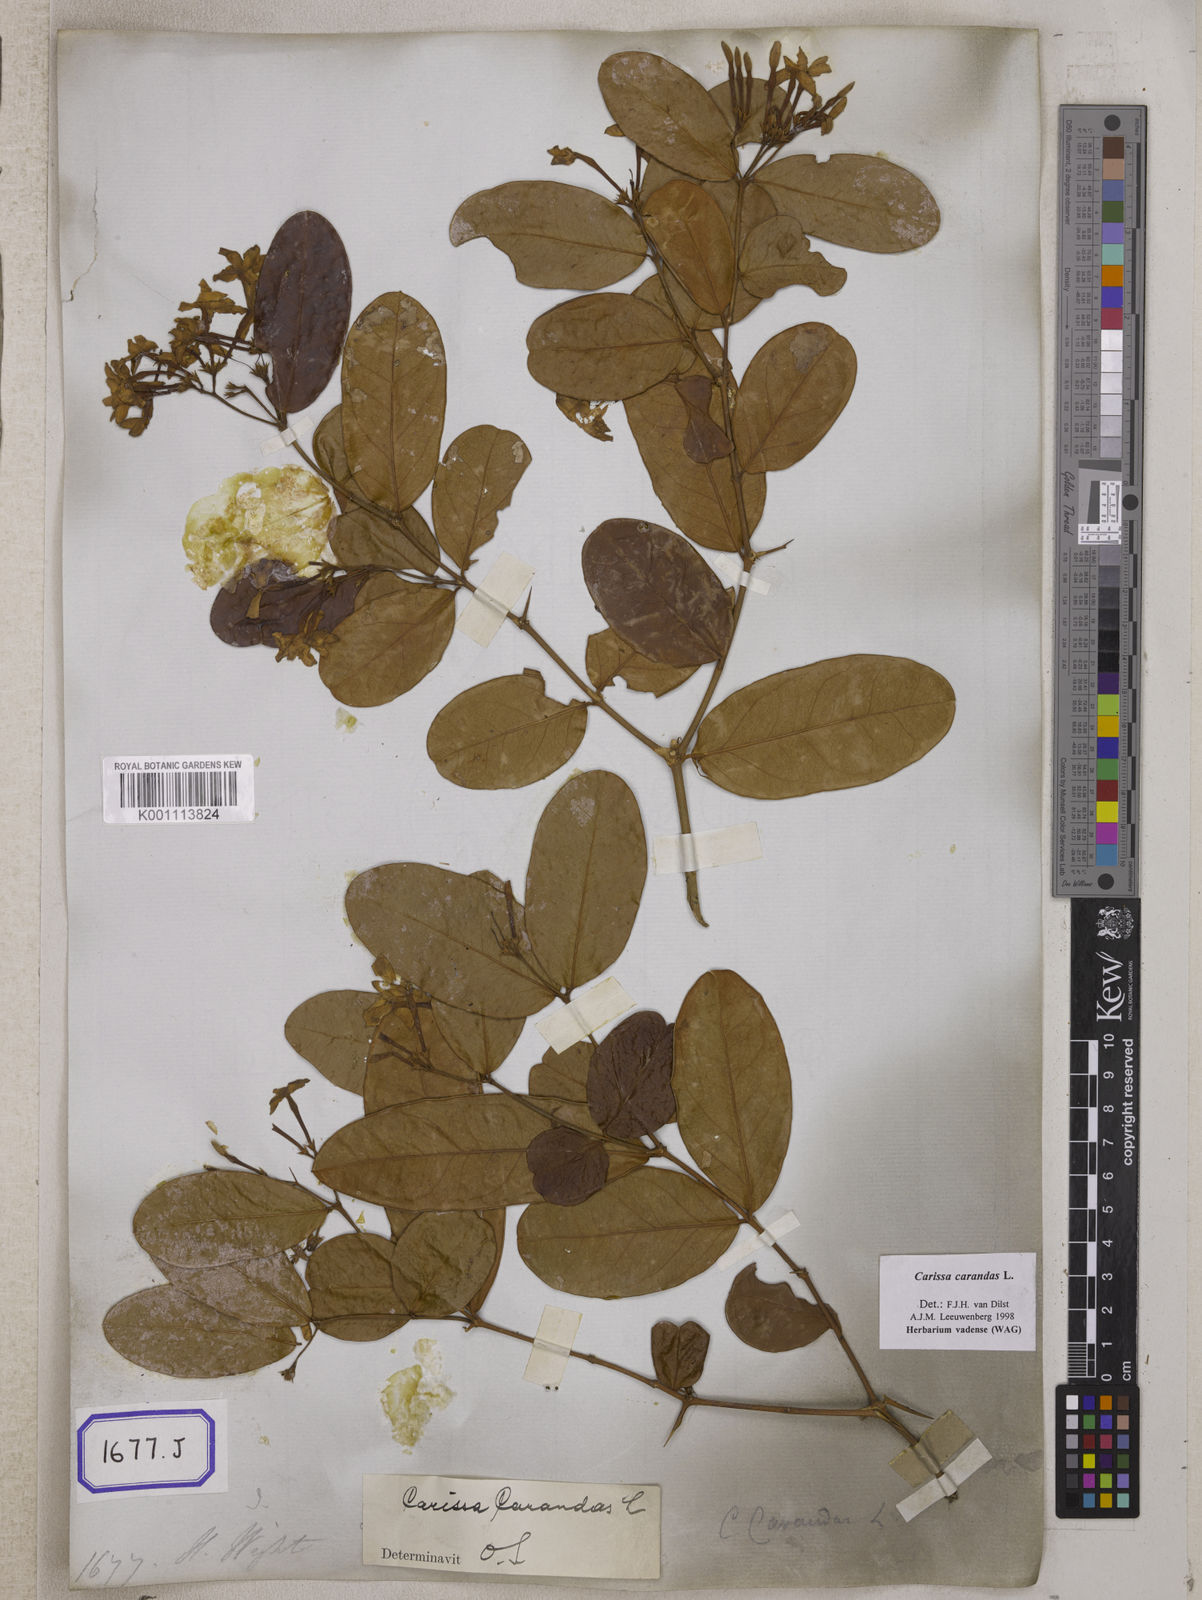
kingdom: Plantae
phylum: Tracheophyta
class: Magnoliopsida
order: Gentianales
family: Apocynaceae
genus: Carissa
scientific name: Carissa carandas
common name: Karanda
